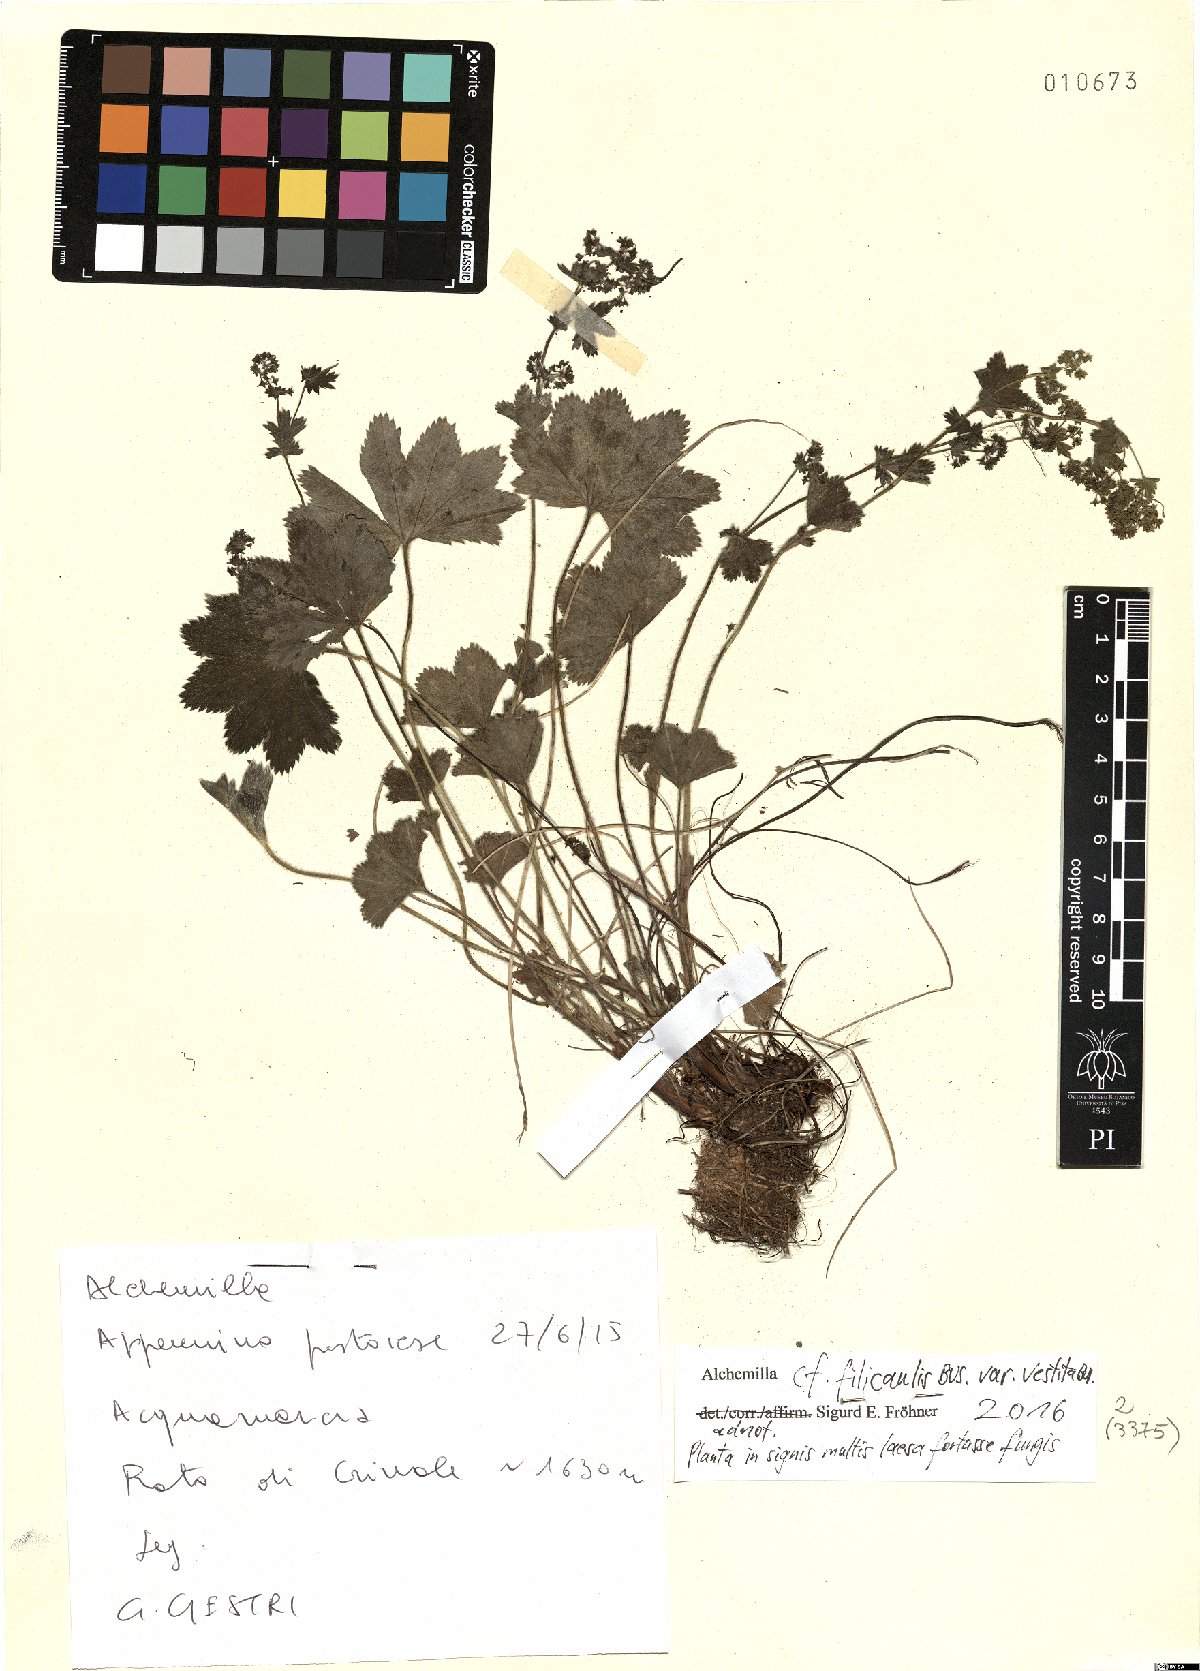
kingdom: Plantae
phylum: Tracheophyta
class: Magnoliopsida
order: Rosales
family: Rosaceae
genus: Alchemilla
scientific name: Alchemilla filicaulis
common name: Hairy lady's-mantle
